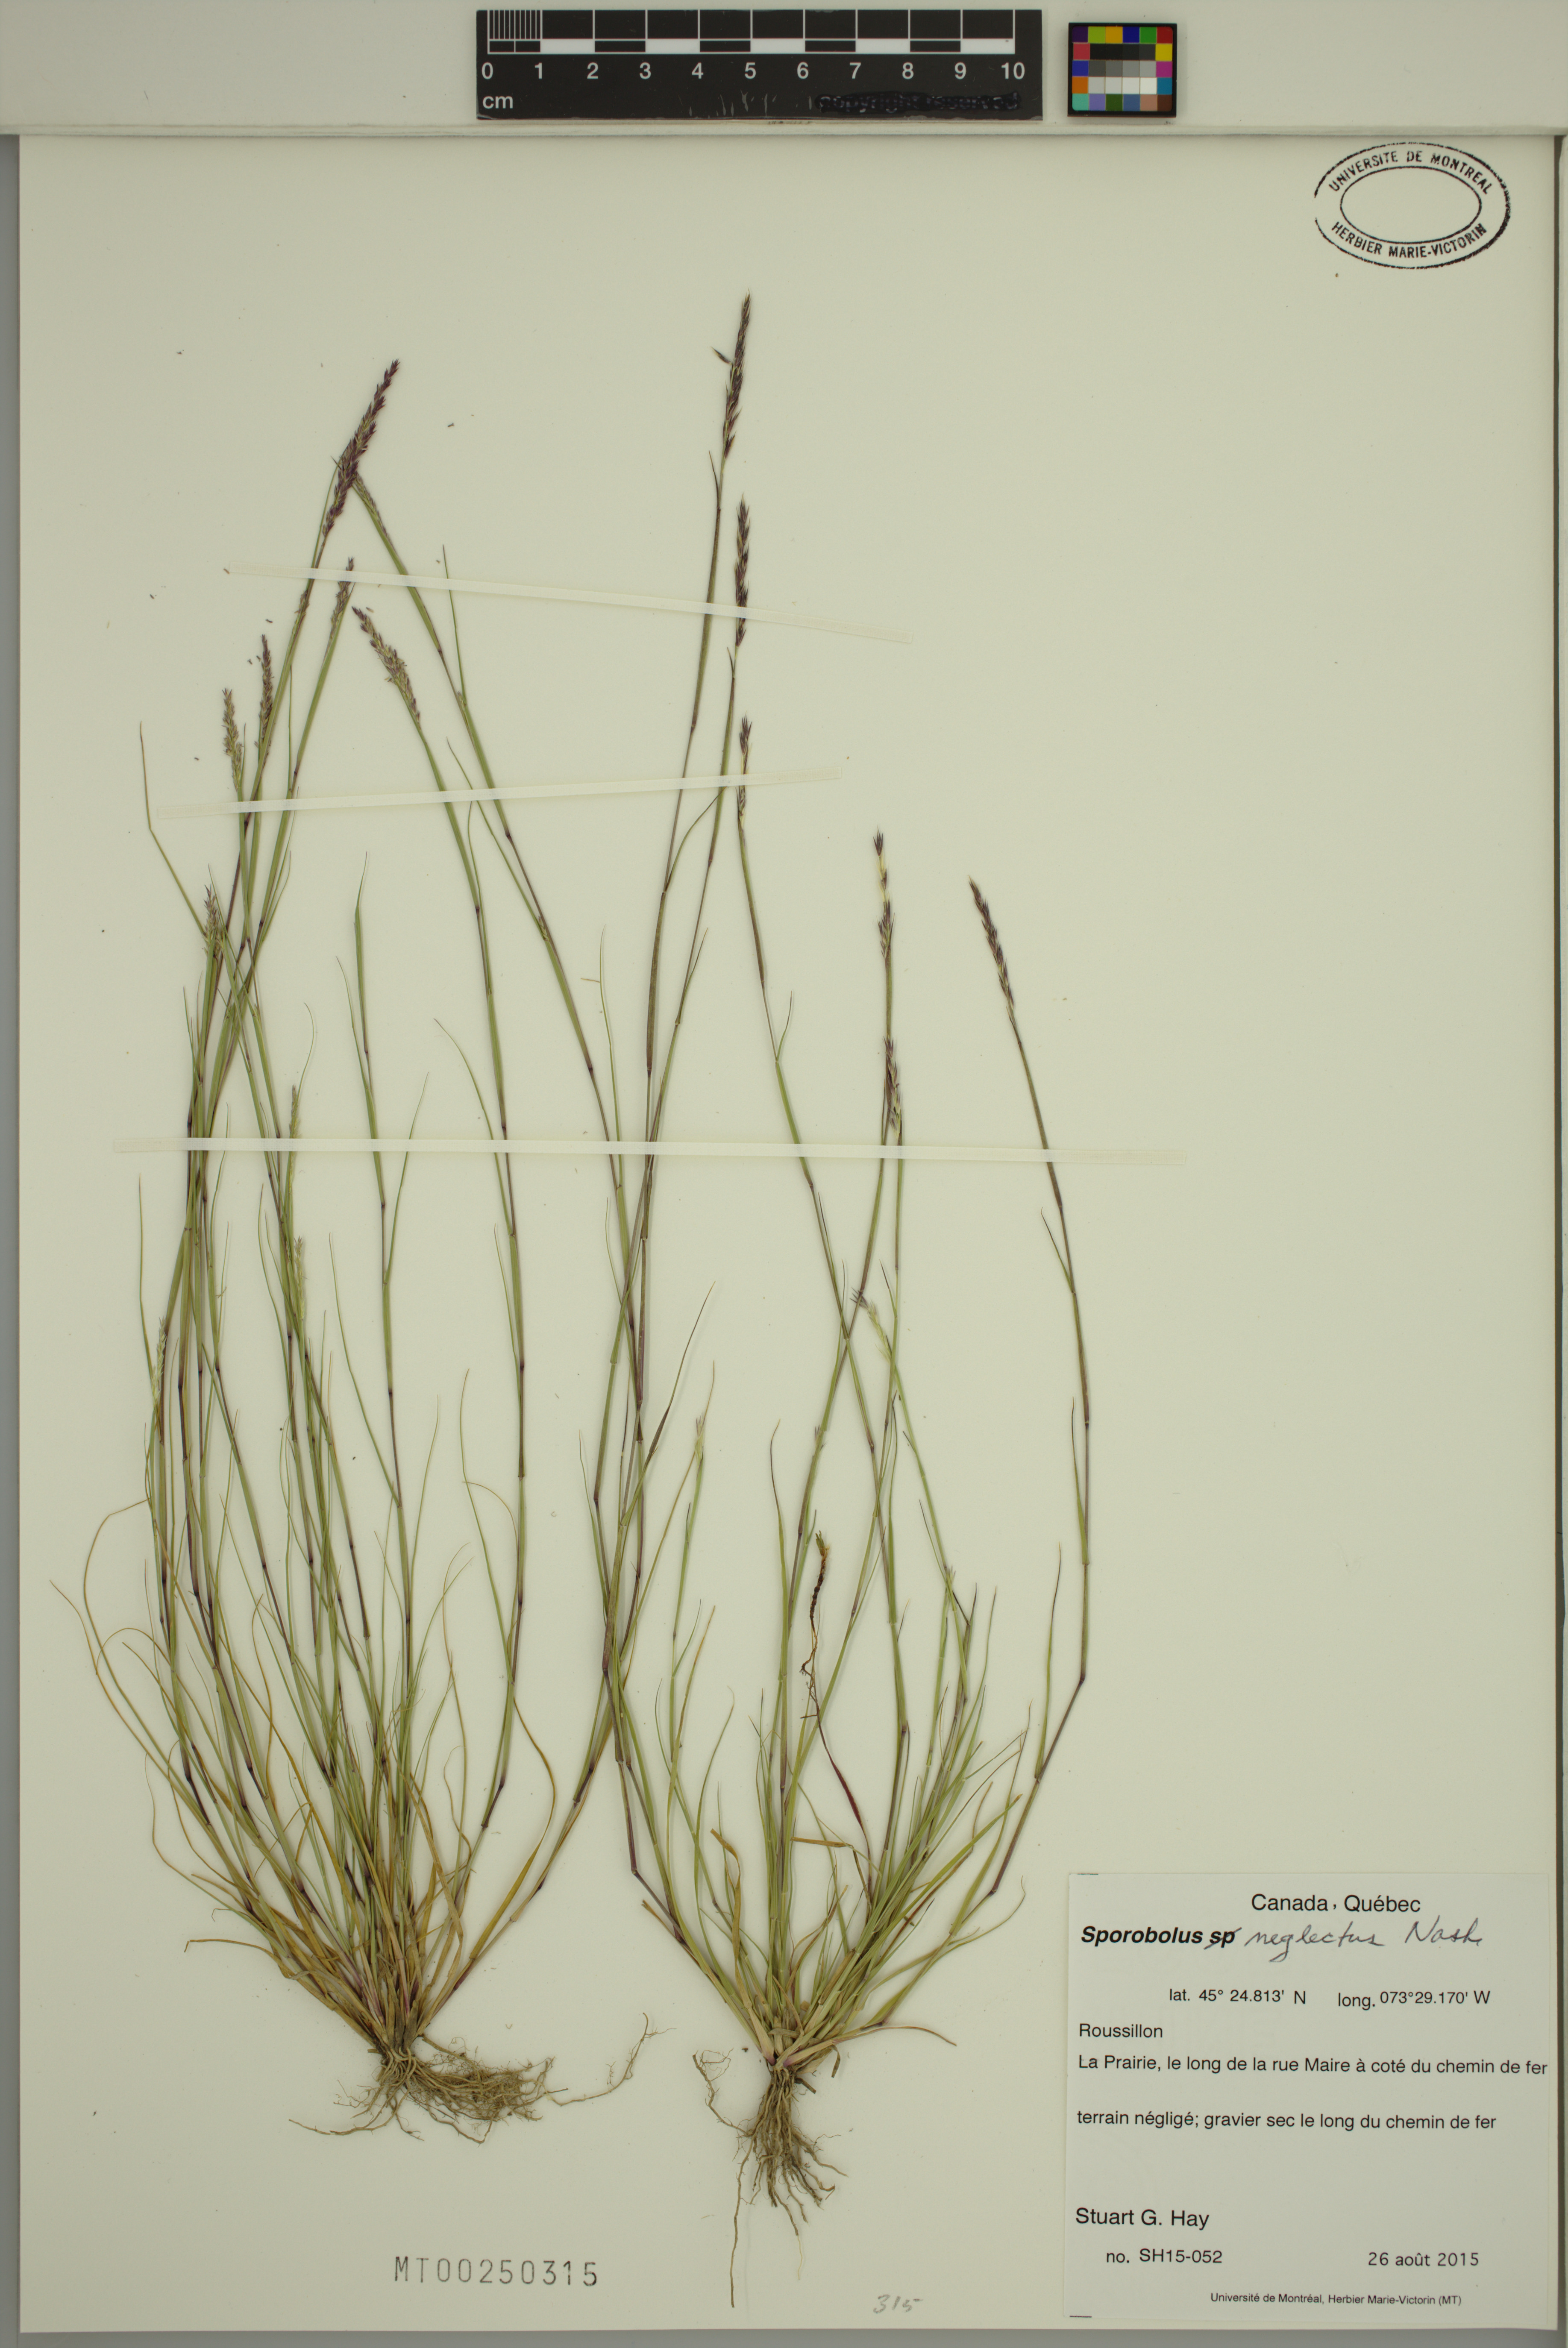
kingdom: Plantae
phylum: Tracheophyta
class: Liliopsida
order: Poales
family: Poaceae
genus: Sporobolus
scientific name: Sporobolus neglectus
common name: Annual dropseed
